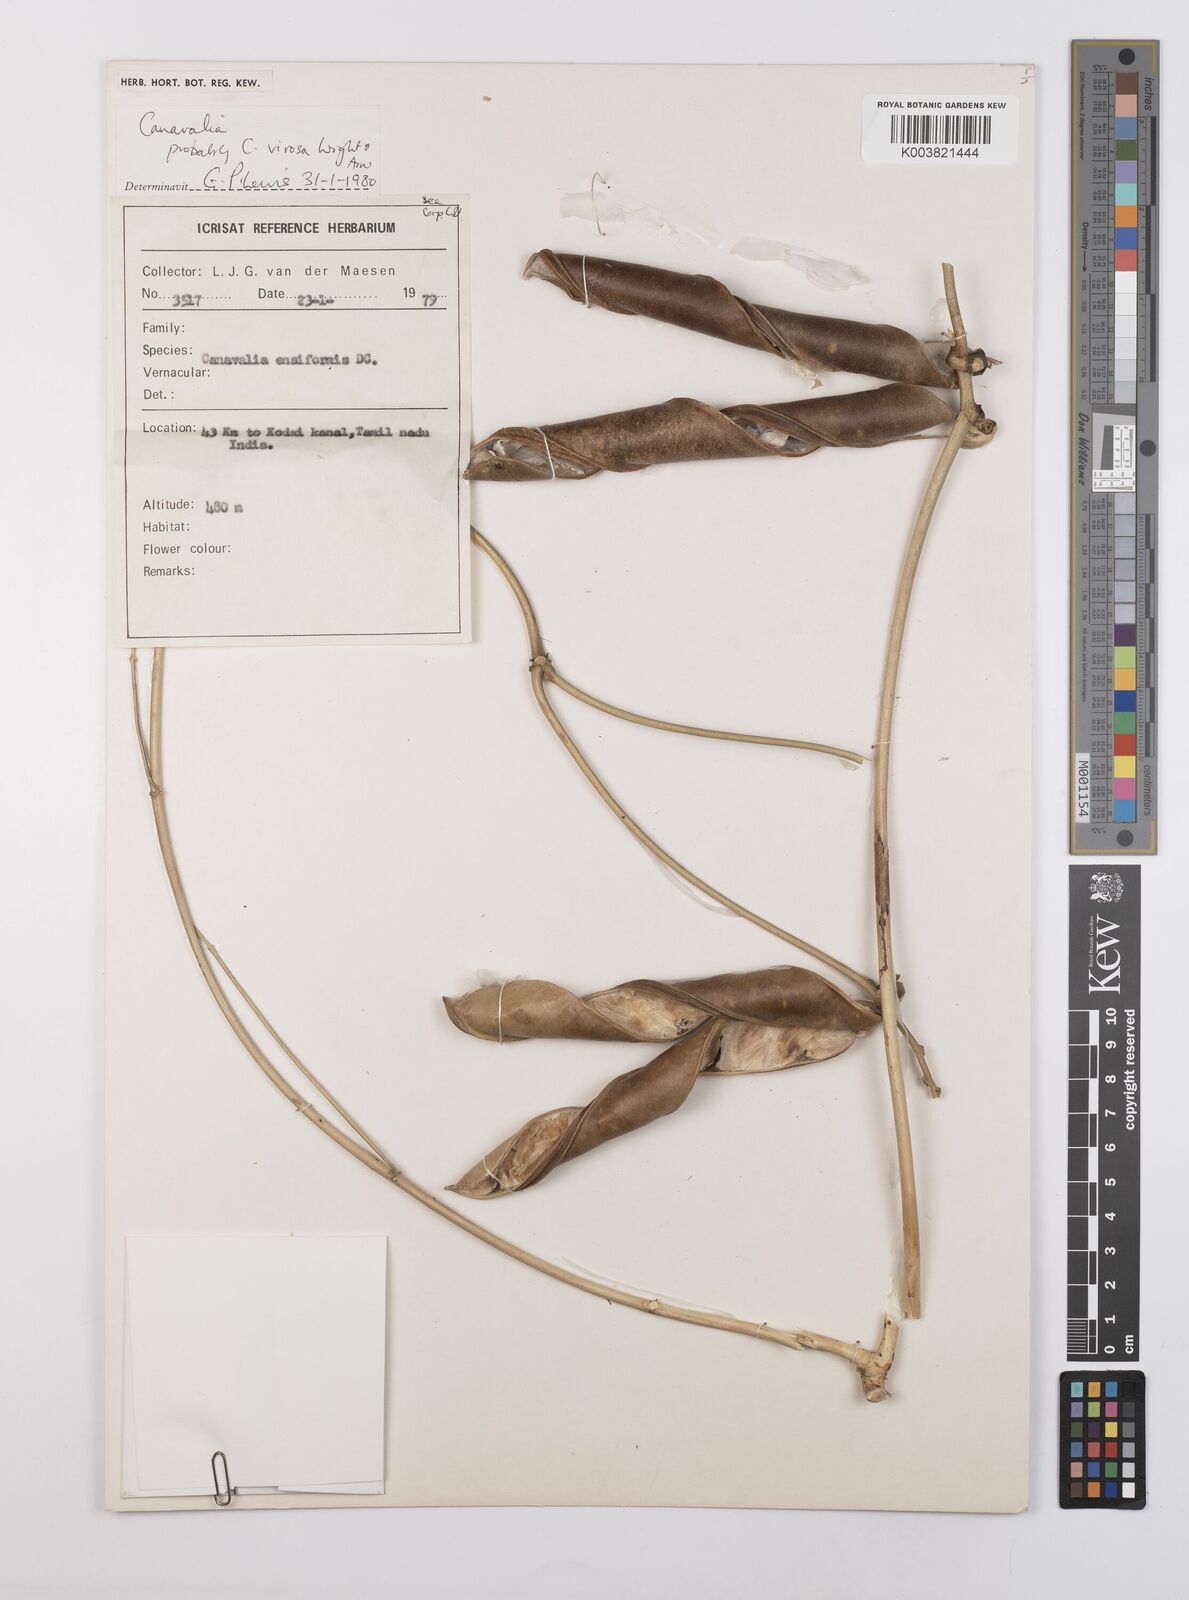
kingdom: Plantae
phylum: Tracheophyta
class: Magnoliopsida
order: Fabales
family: Fabaceae
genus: Canavalia
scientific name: Canavalia cathartica
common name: Maunaloa
